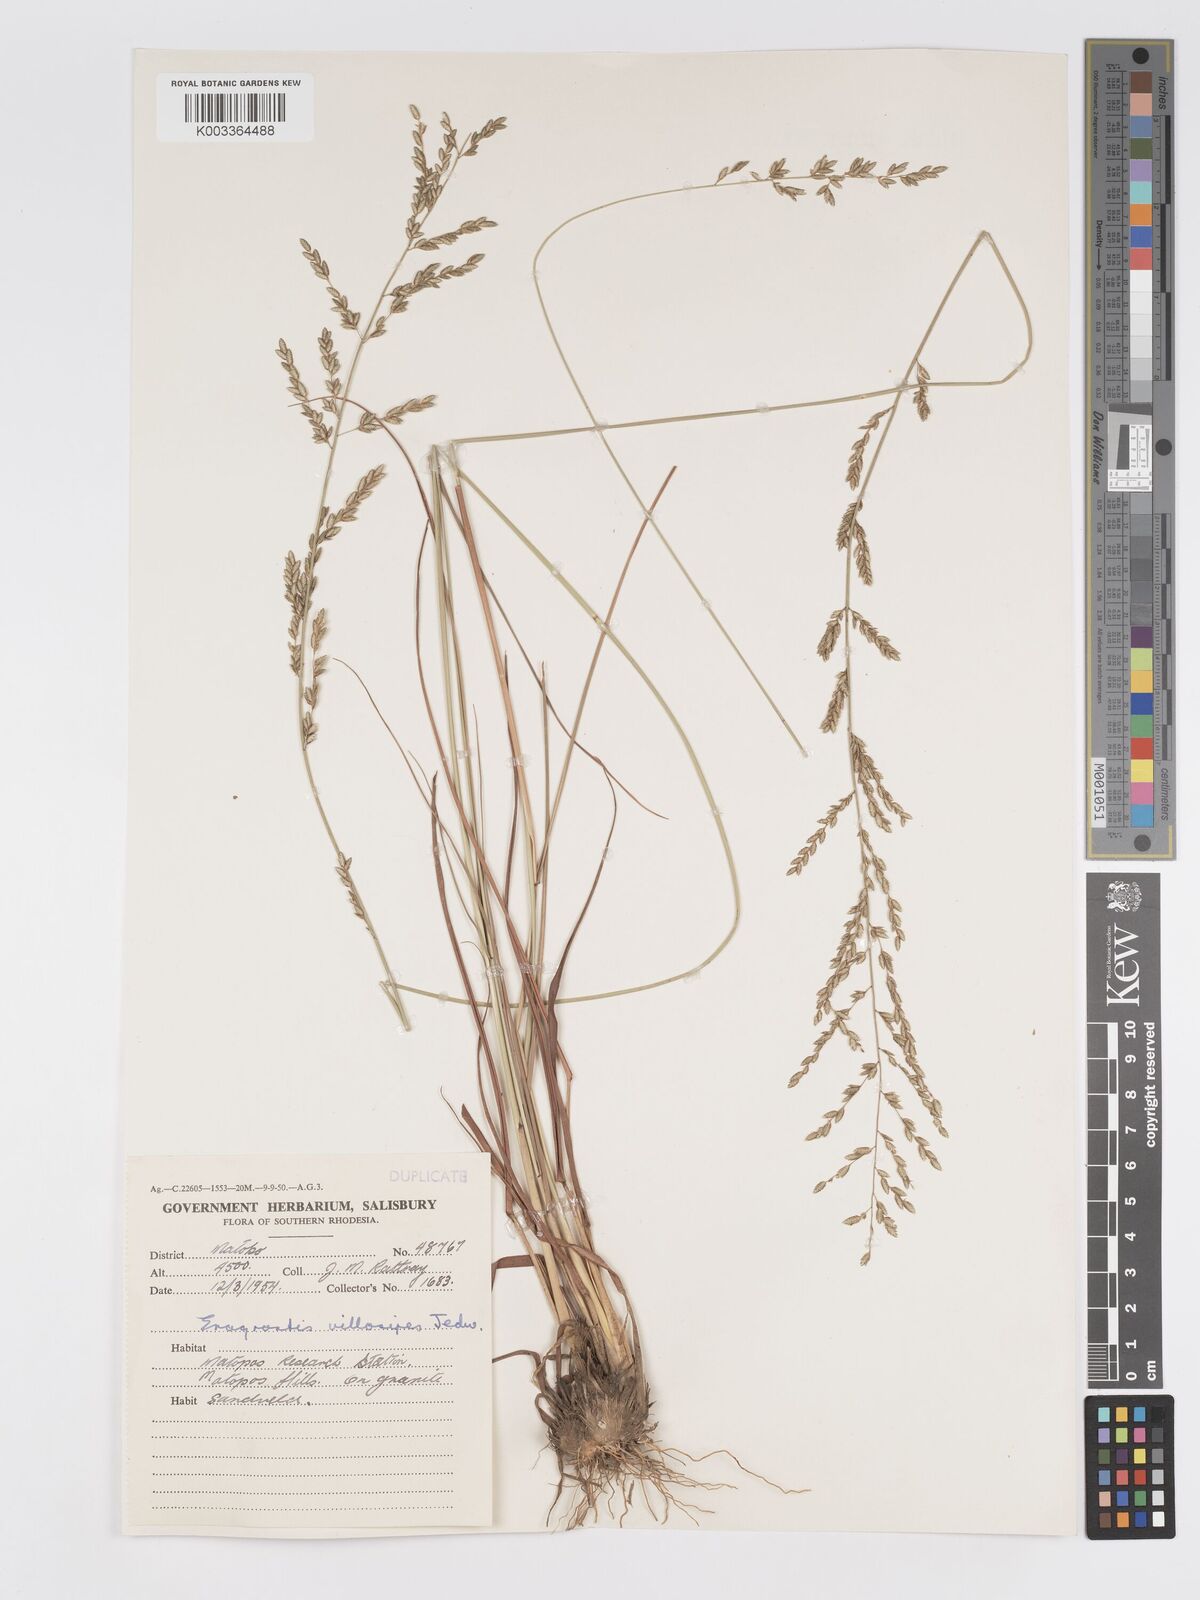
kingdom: Plantae
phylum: Tracheophyta
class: Liliopsida
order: Poales
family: Poaceae
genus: Eragrostis
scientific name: Eragrostis sclerantha
